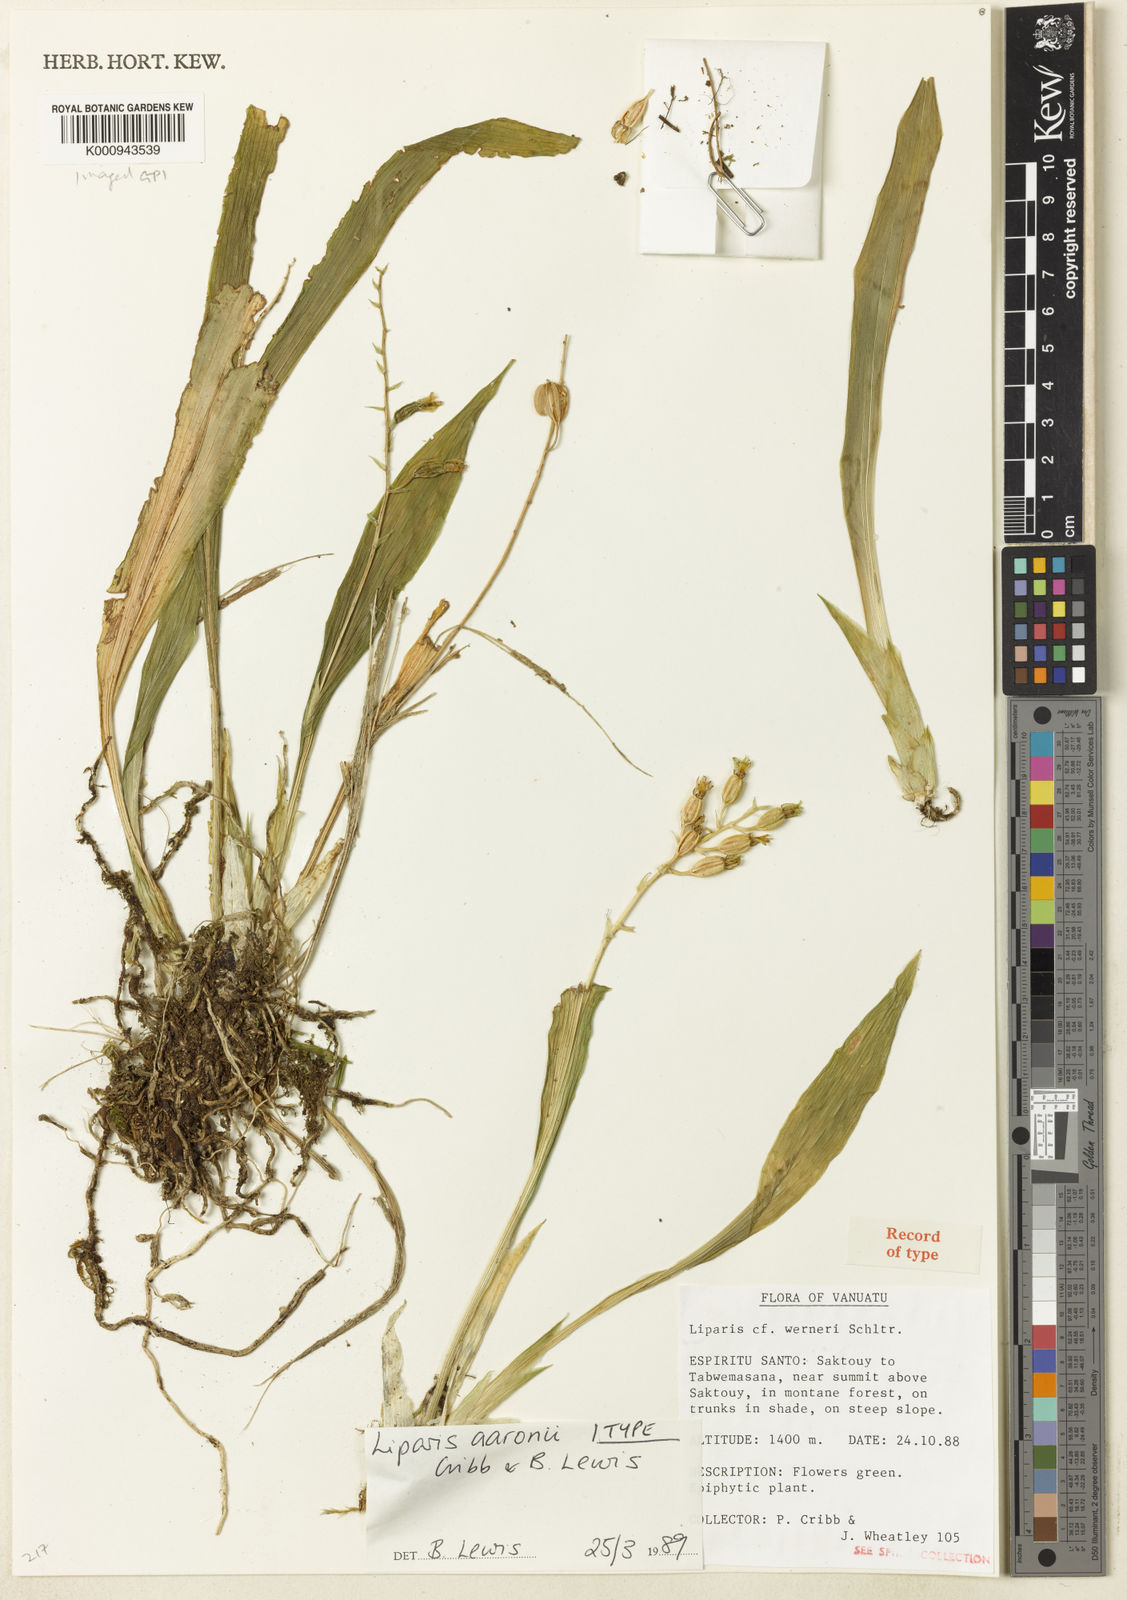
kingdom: Plantae
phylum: Tracheophyta
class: Liliopsida
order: Asparagales
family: Orchidaceae
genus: Liparis
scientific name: Liparis werneri
